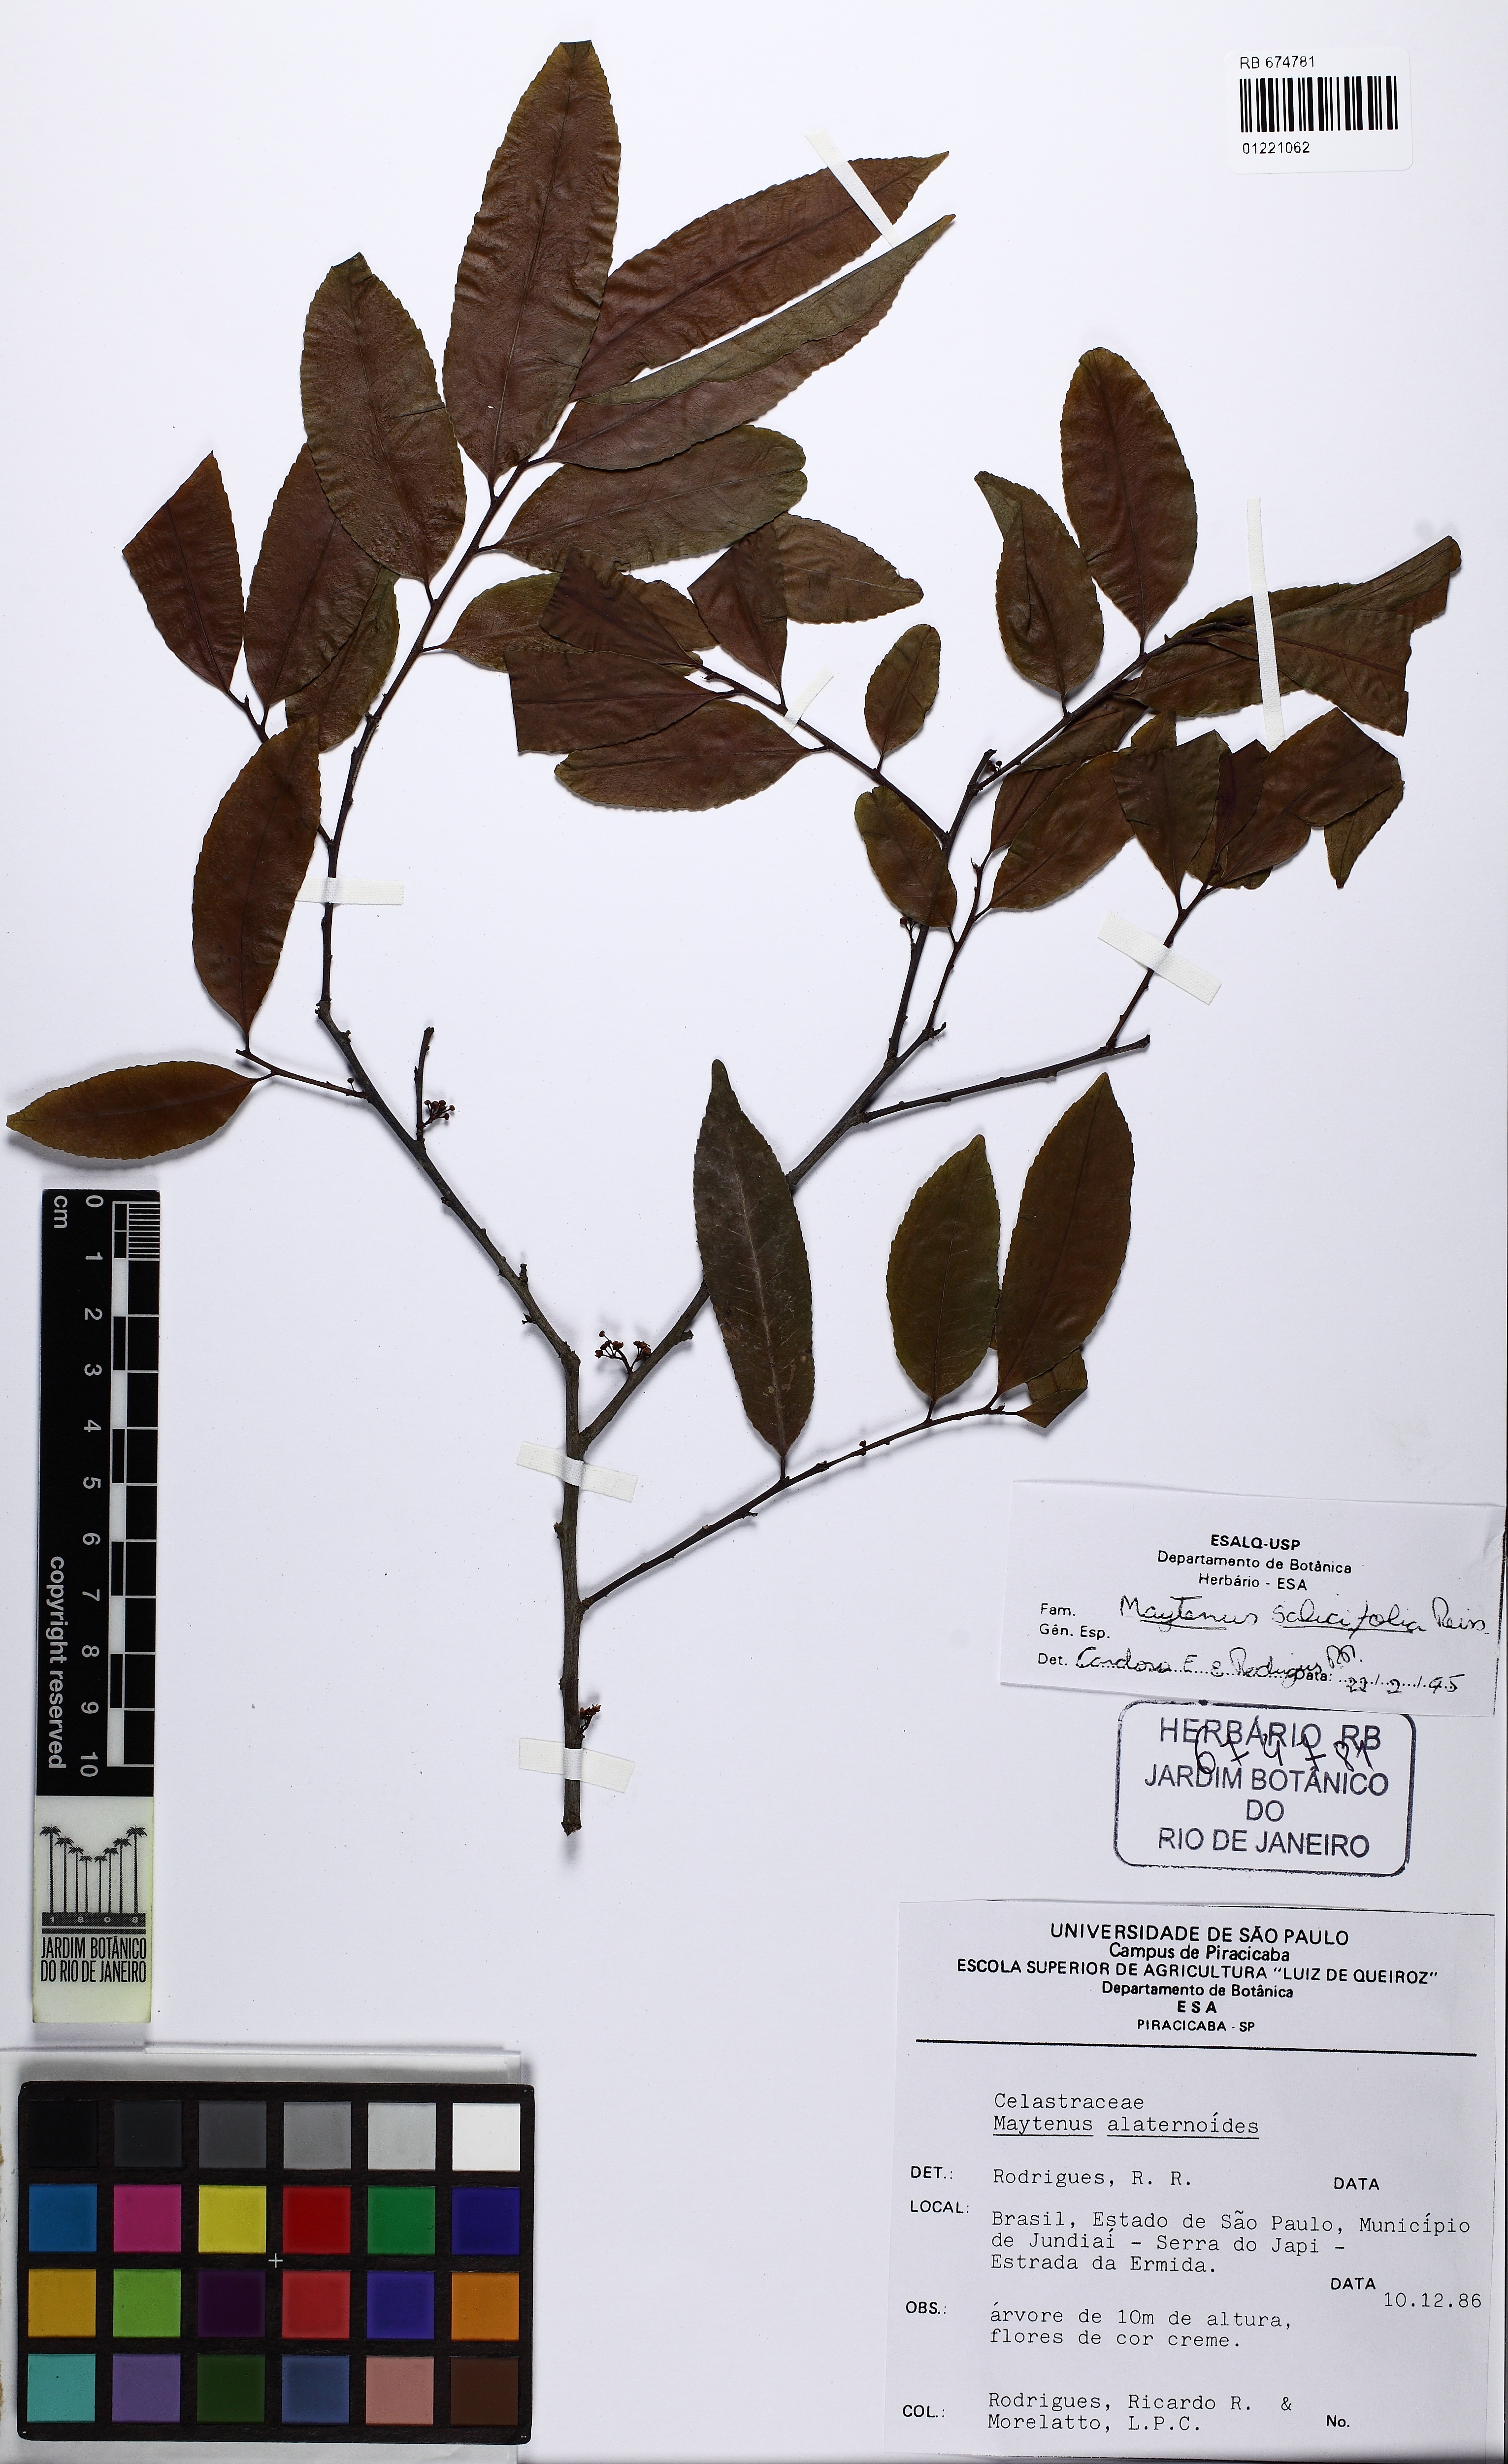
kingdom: Plantae
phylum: Tracheophyta
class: Magnoliopsida
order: Celastrales
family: Celastraceae
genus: Maytenus
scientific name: Maytenus salicifolia
